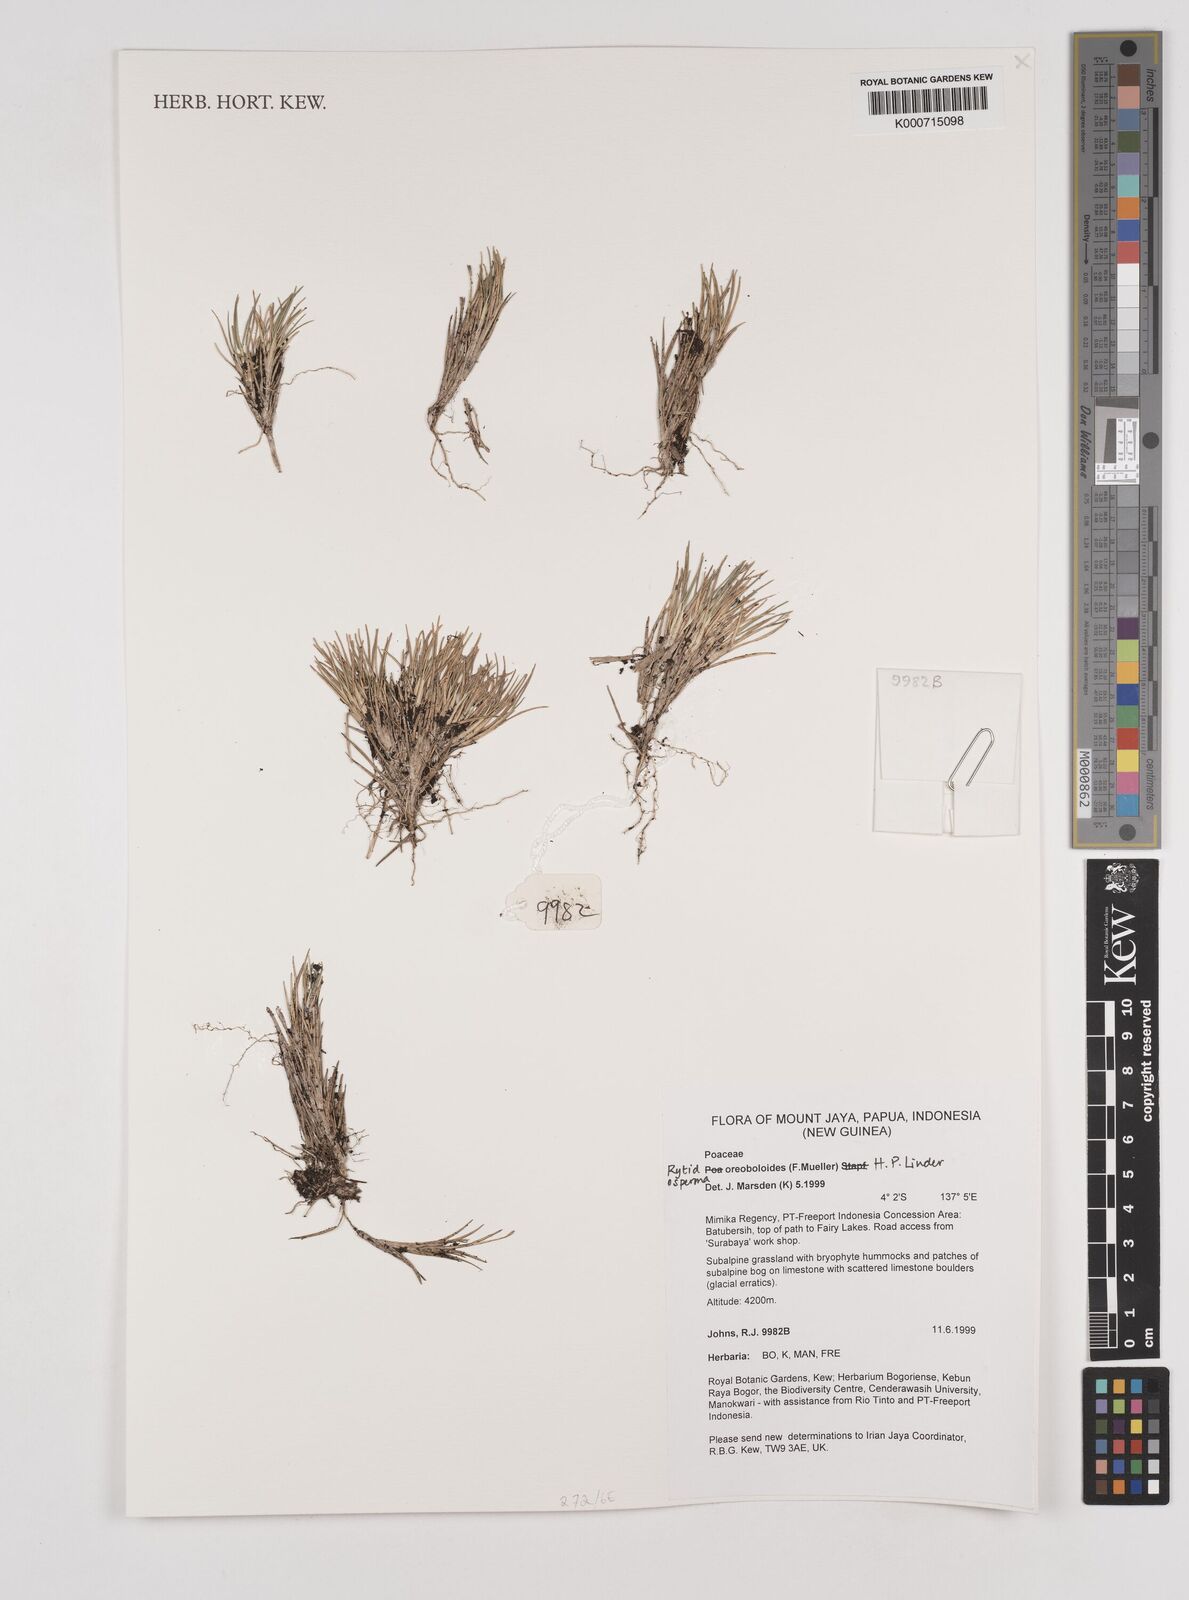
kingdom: Plantae
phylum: Tracheophyta
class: Liliopsida
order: Poales
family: Poaceae
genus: Rytidosperma
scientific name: Rytidosperma oreoboloides
